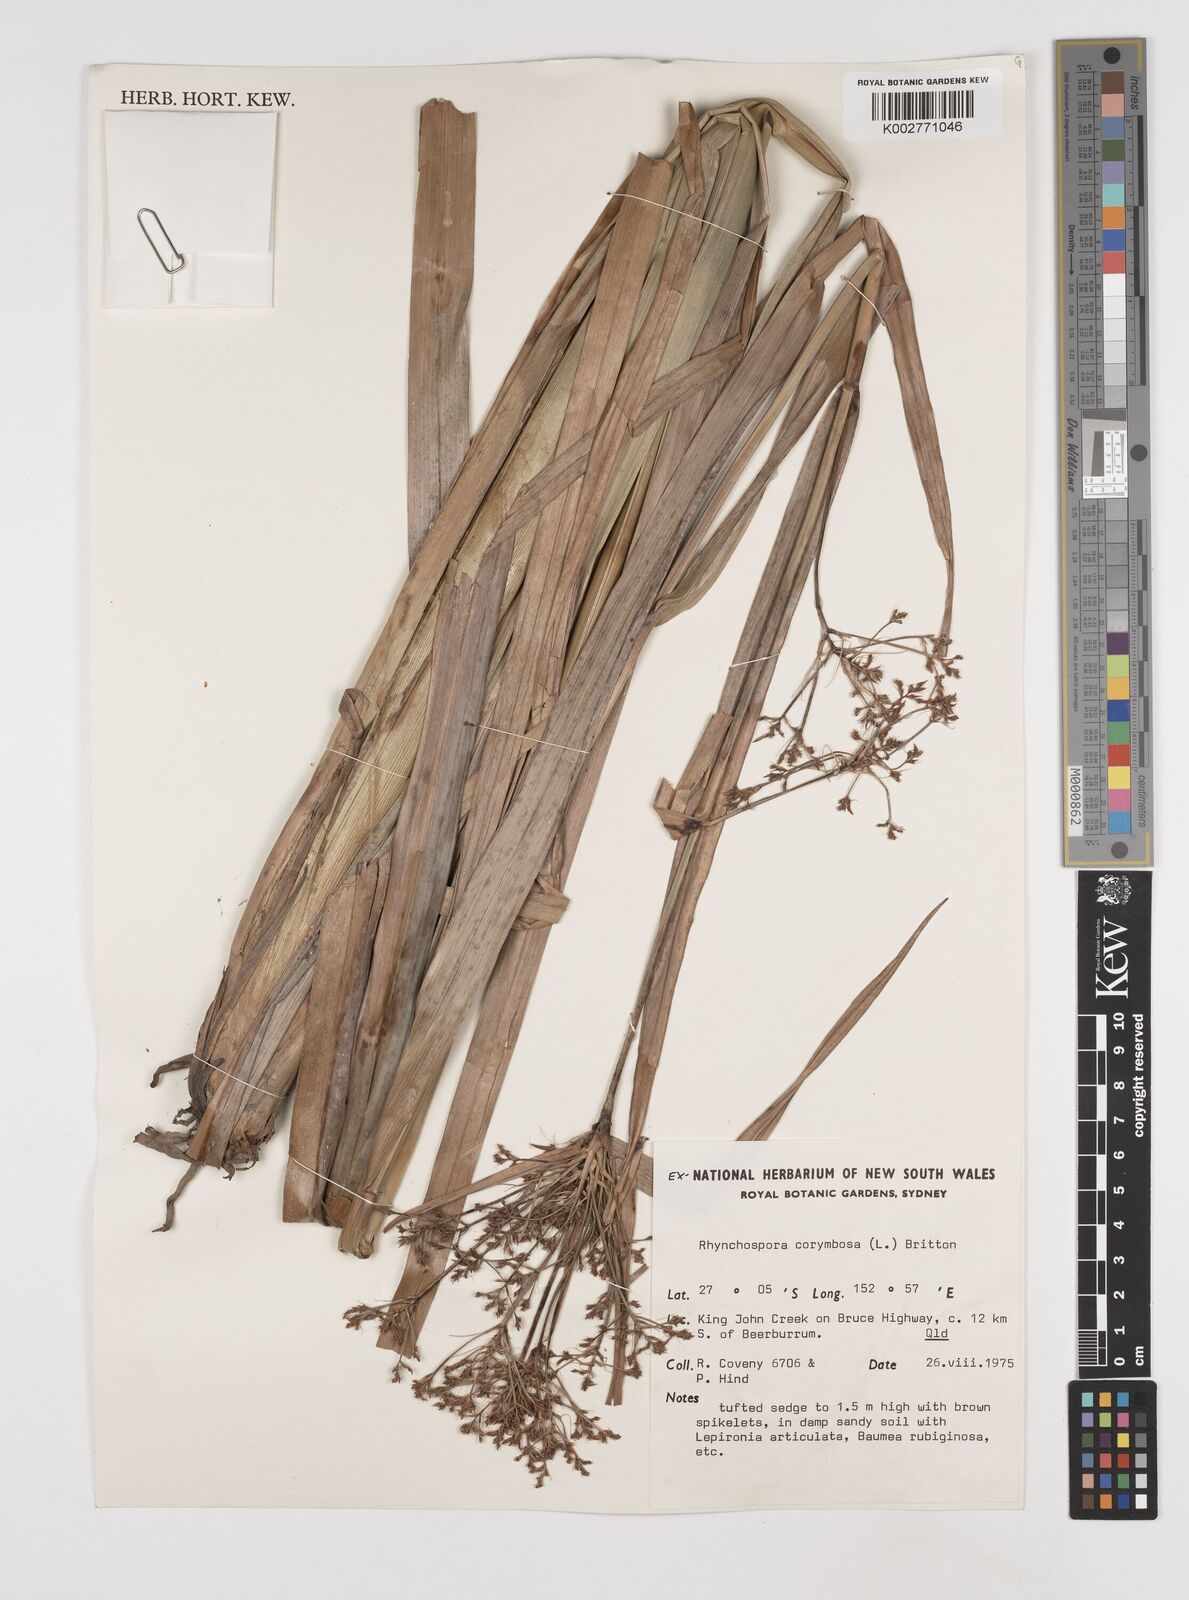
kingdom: Plantae
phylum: Tracheophyta
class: Liliopsida
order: Poales
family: Cyperaceae
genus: Rhynchospora
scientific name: Rhynchospora corymbosa
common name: Golden beak sedge
